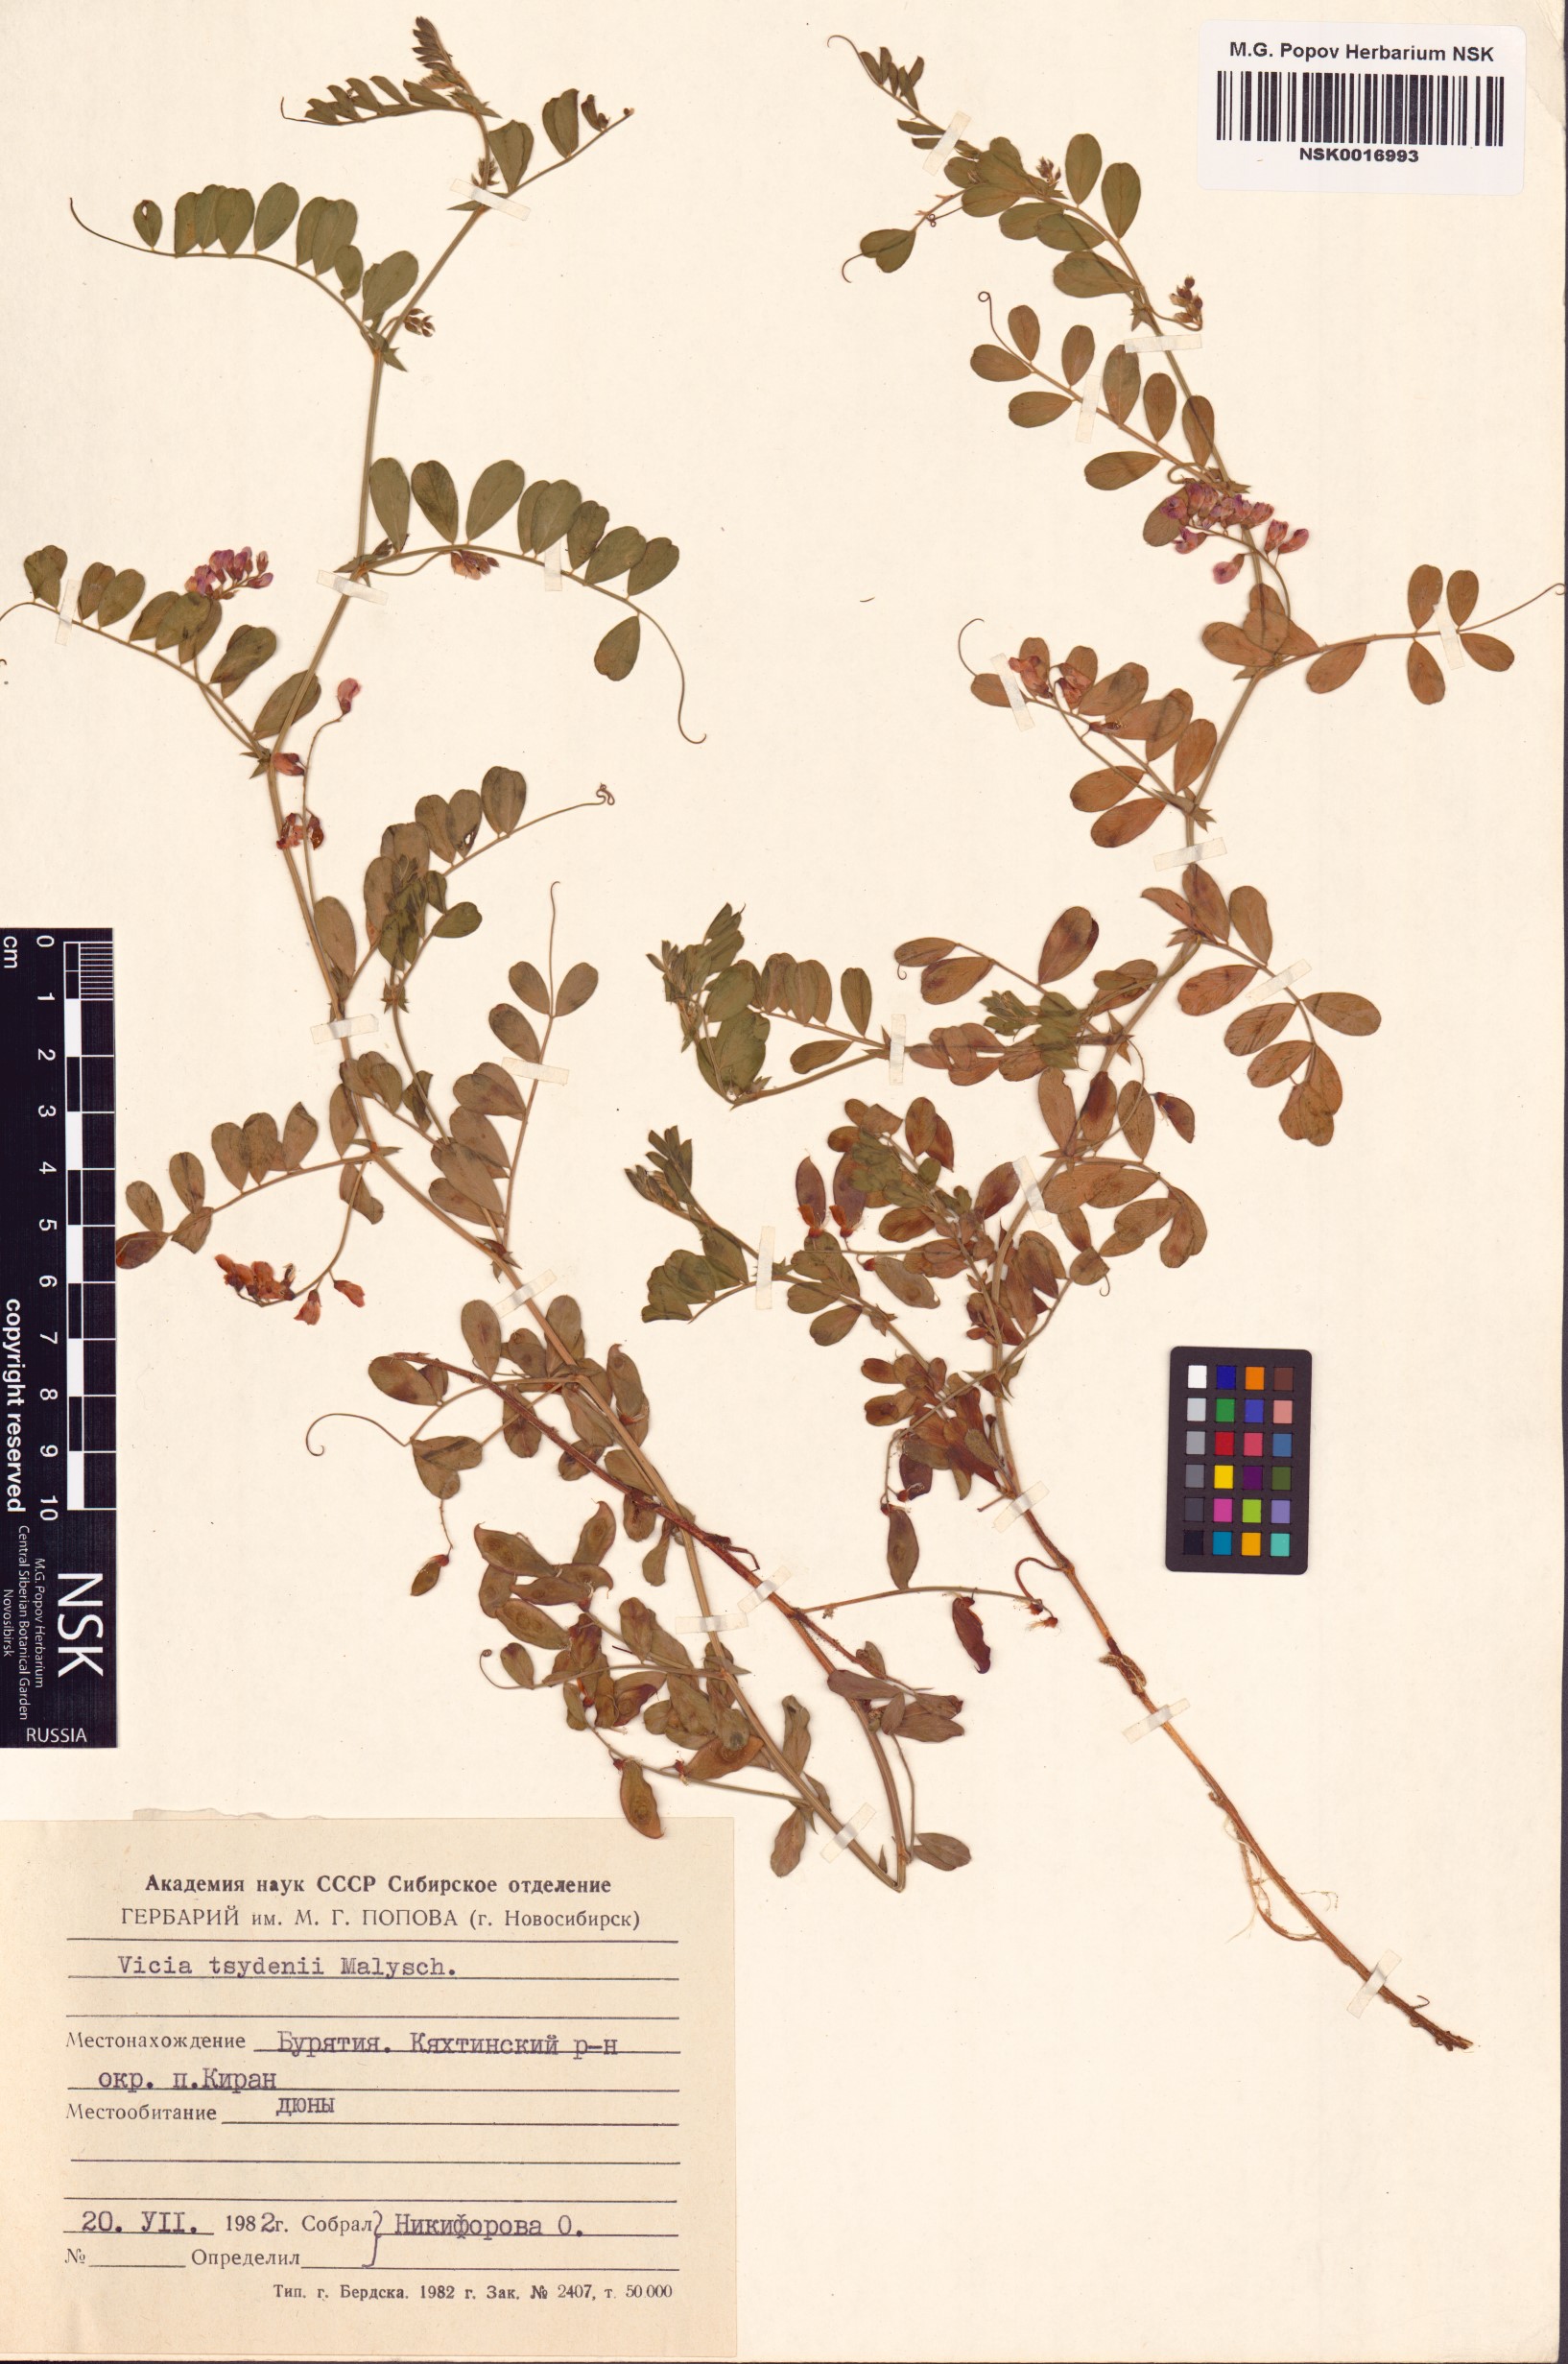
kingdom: Plantae
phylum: Tracheophyta
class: Magnoliopsida
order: Fabales
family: Fabaceae
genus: Vicia
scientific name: Vicia tsydenii
